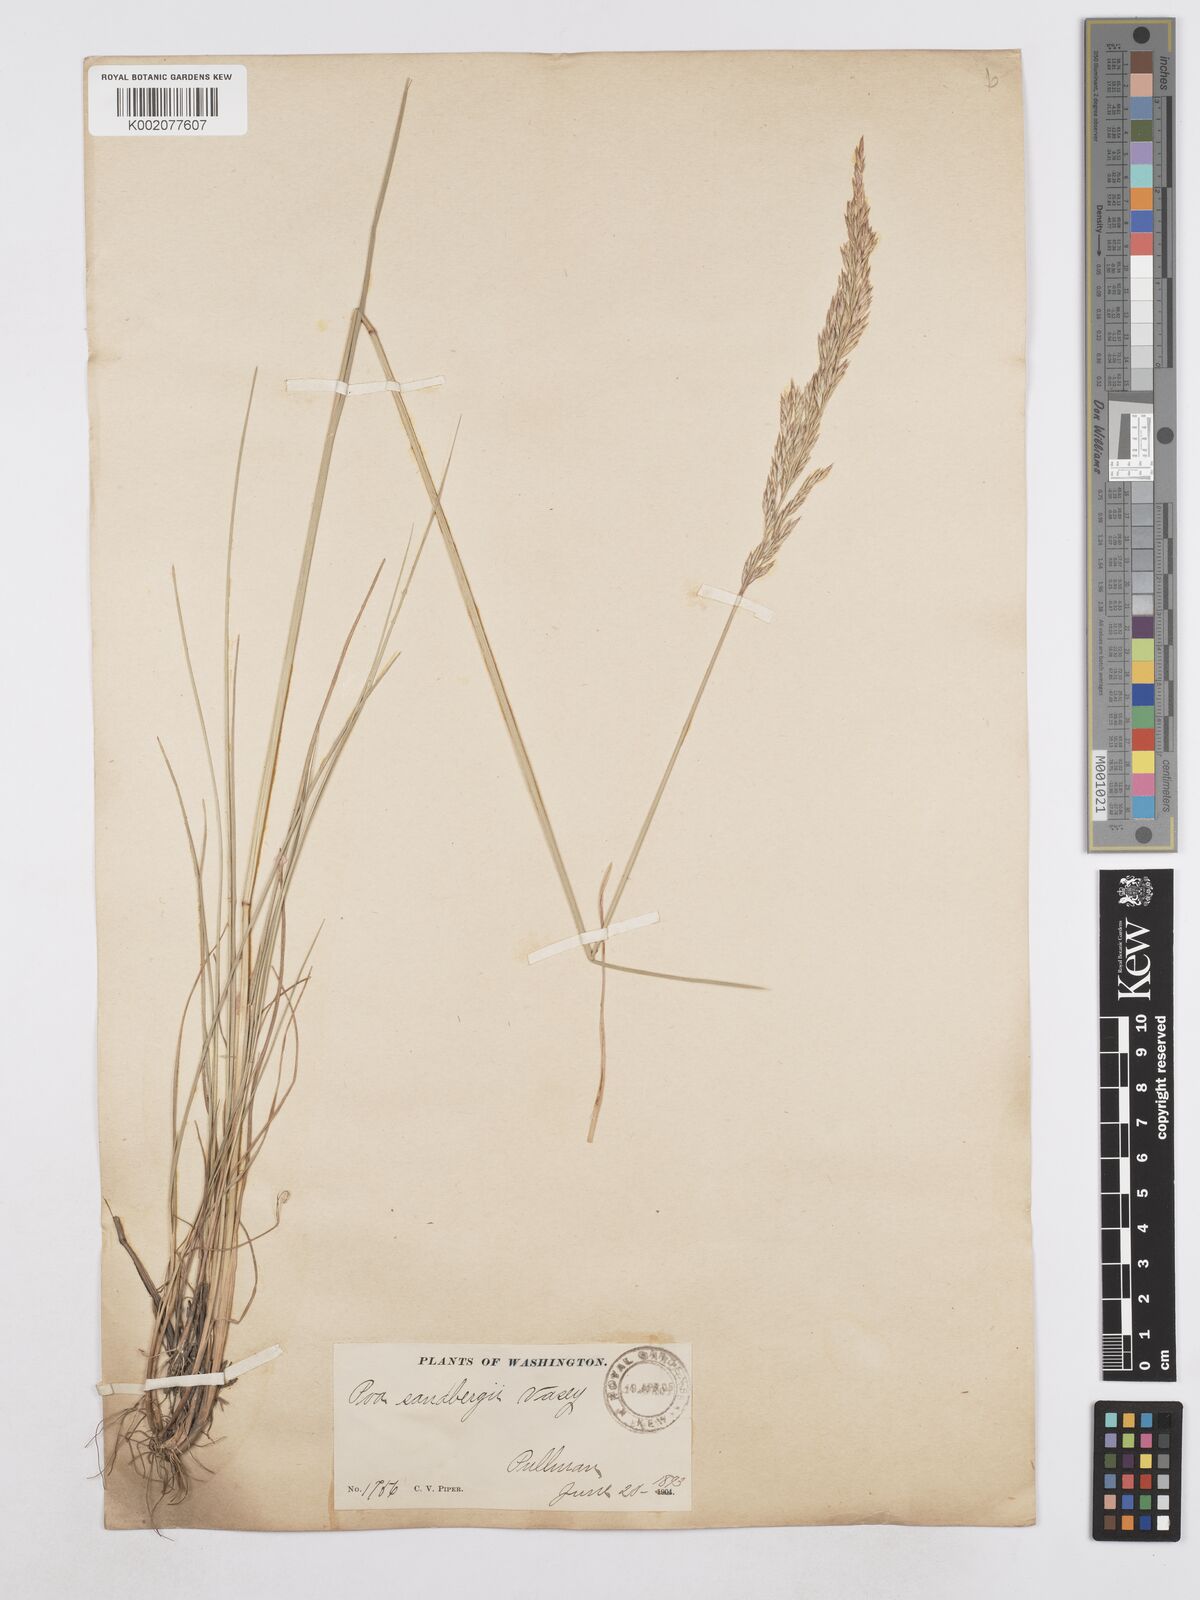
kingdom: Plantae
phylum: Tracheophyta
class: Liliopsida
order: Poales
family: Poaceae
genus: Poa
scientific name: Poa secunda
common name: Sandberg bluegrass
